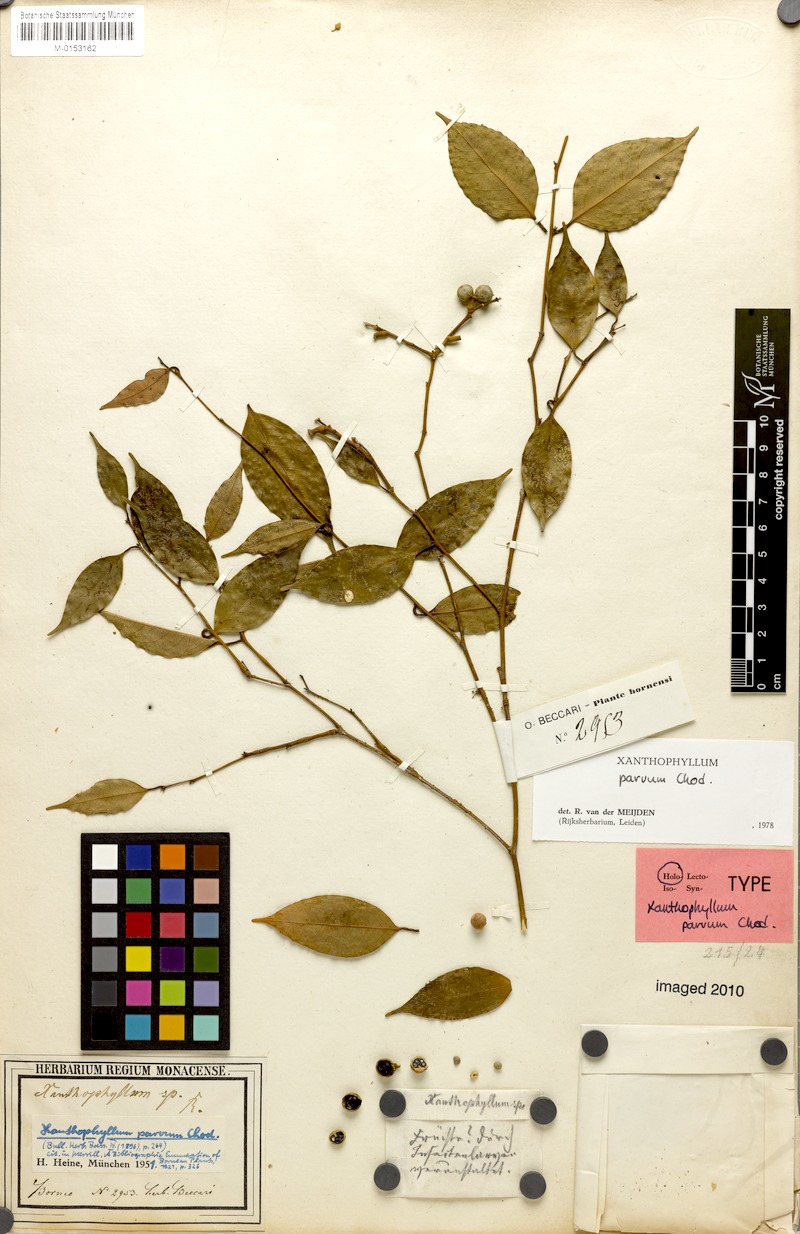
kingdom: Plantae
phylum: Tracheophyta
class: Magnoliopsida
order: Fabales
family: Polygalaceae
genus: Xanthophyllum
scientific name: Xanthophyllum griffithii
